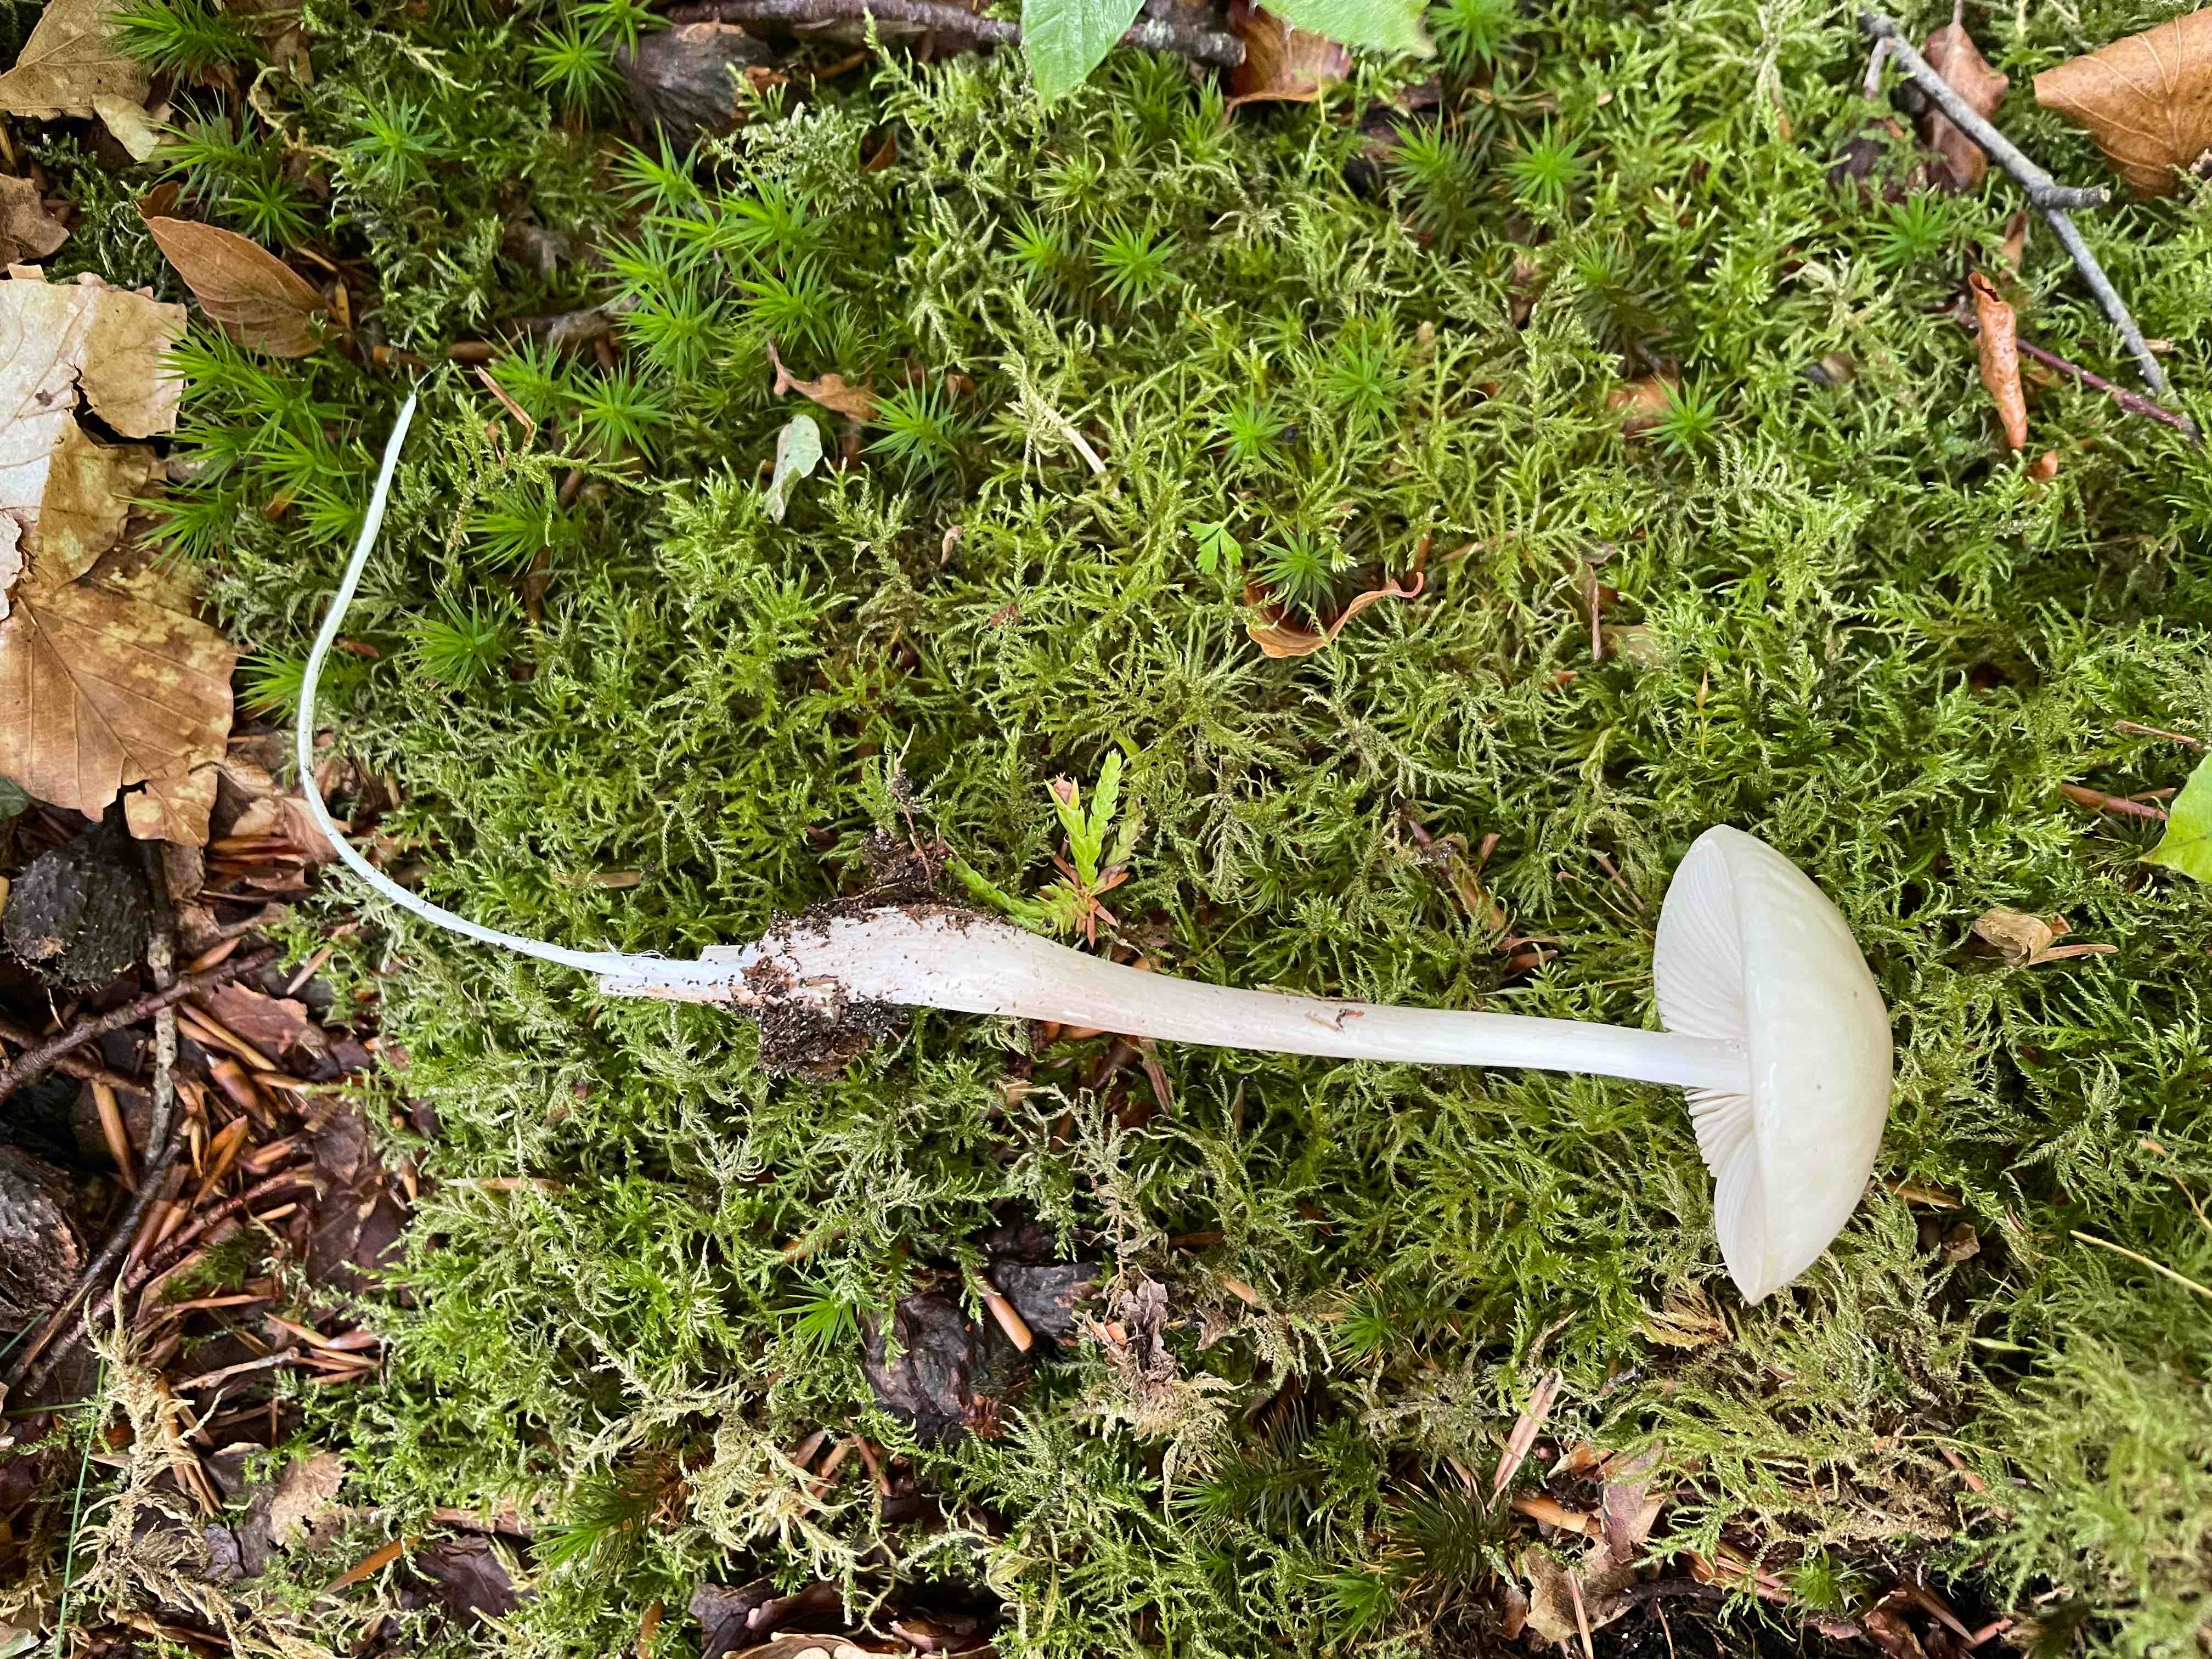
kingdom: Fungi
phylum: Basidiomycota
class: Agaricomycetes
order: Agaricales
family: Physalacriaceae
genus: Hymenopellis
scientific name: Hymenopellis radicata
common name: almindelig pælerodshat
